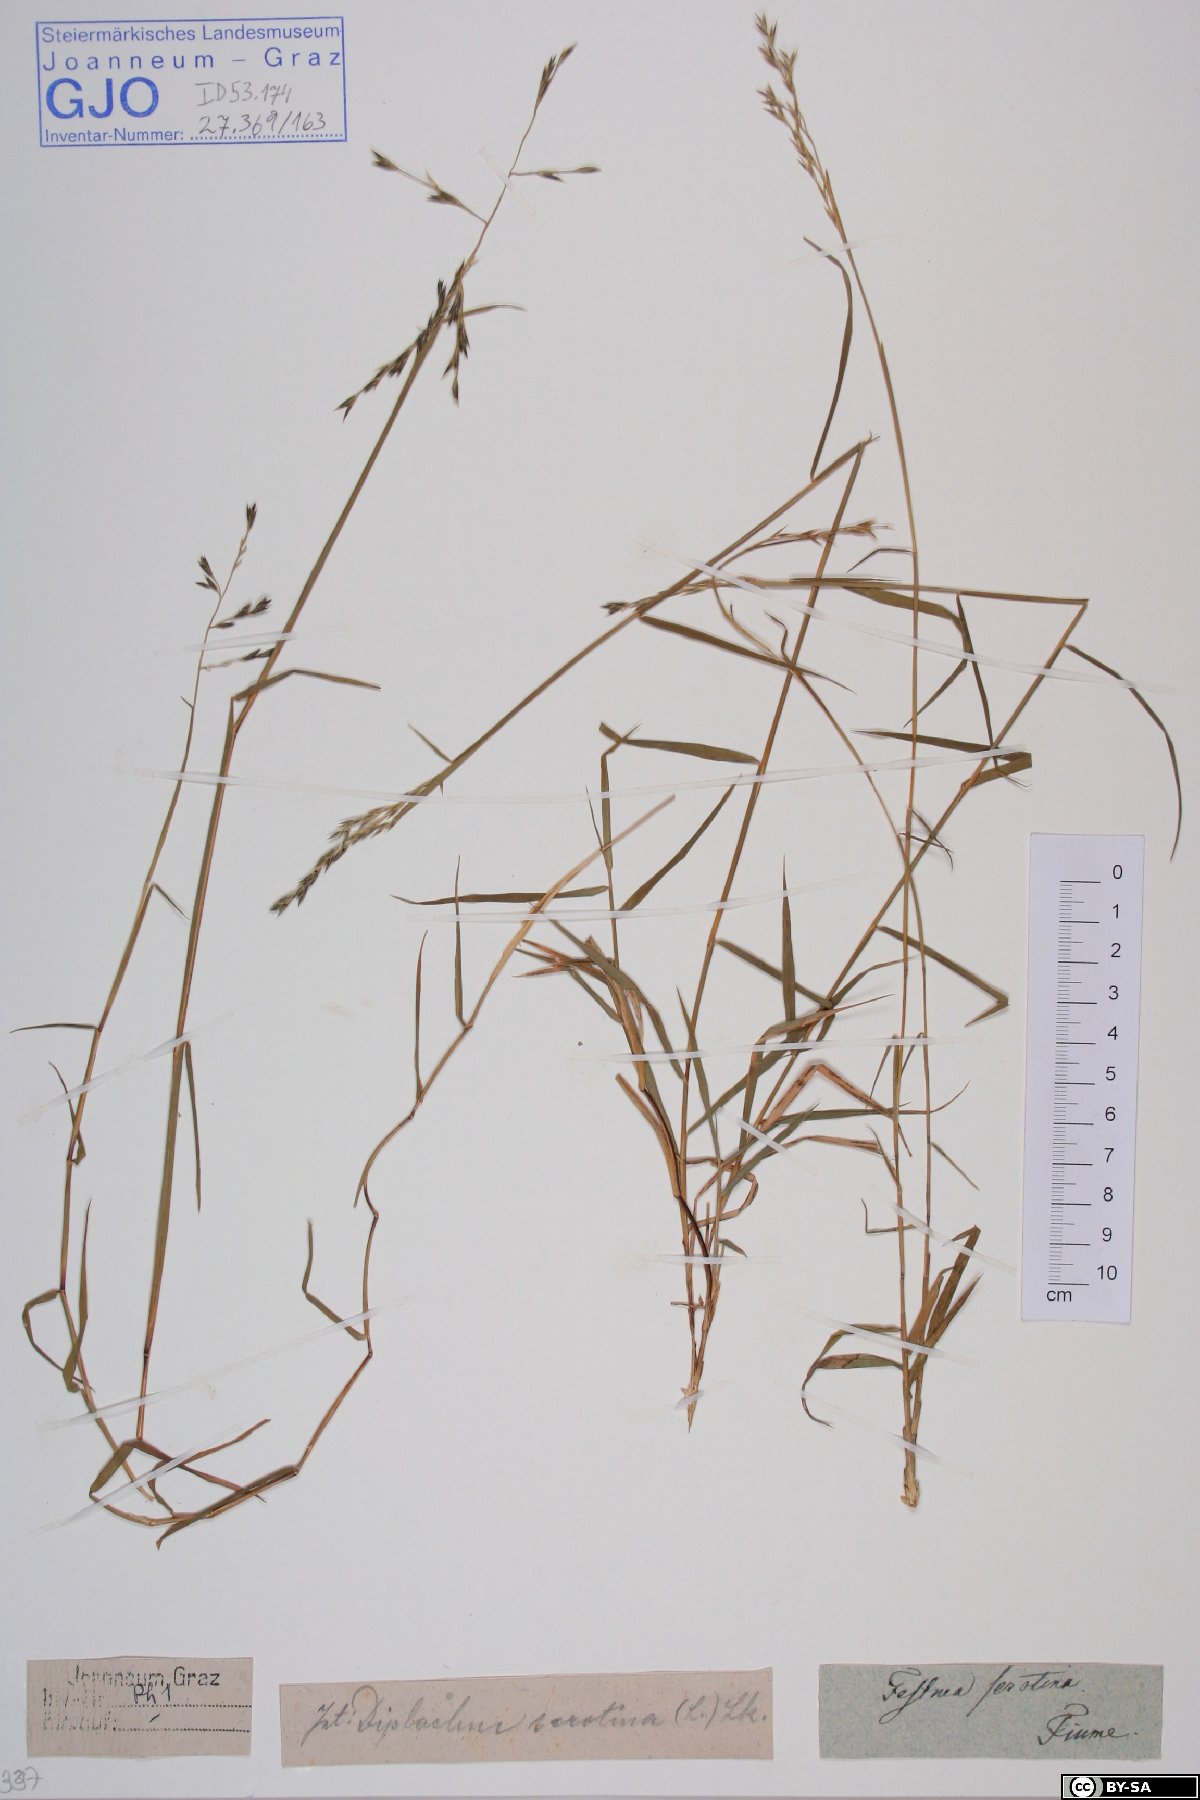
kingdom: Plantae
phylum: Tracheophyta
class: Liliopsida
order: Poales
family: Poaceae
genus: Cleistogenes
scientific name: Cleistogenes serotina
